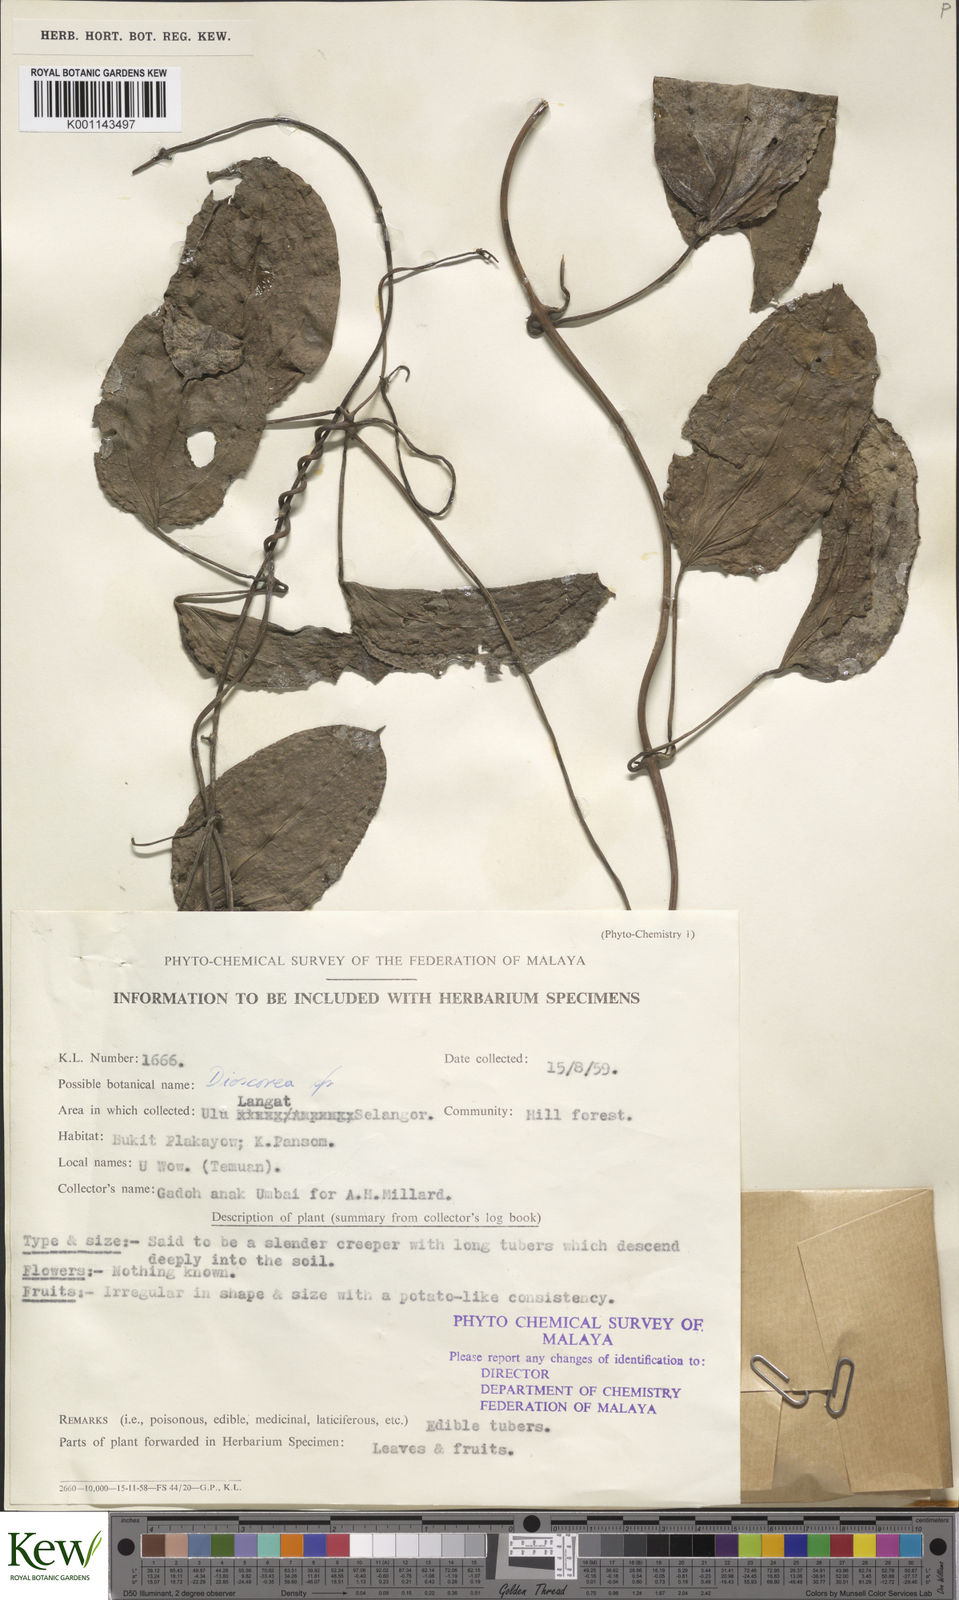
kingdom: Plantae
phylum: Tracheophyta
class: Liliopsida
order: Dioscoreales
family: Dioscoreaceae
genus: Dioscorea
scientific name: Dioscorea
